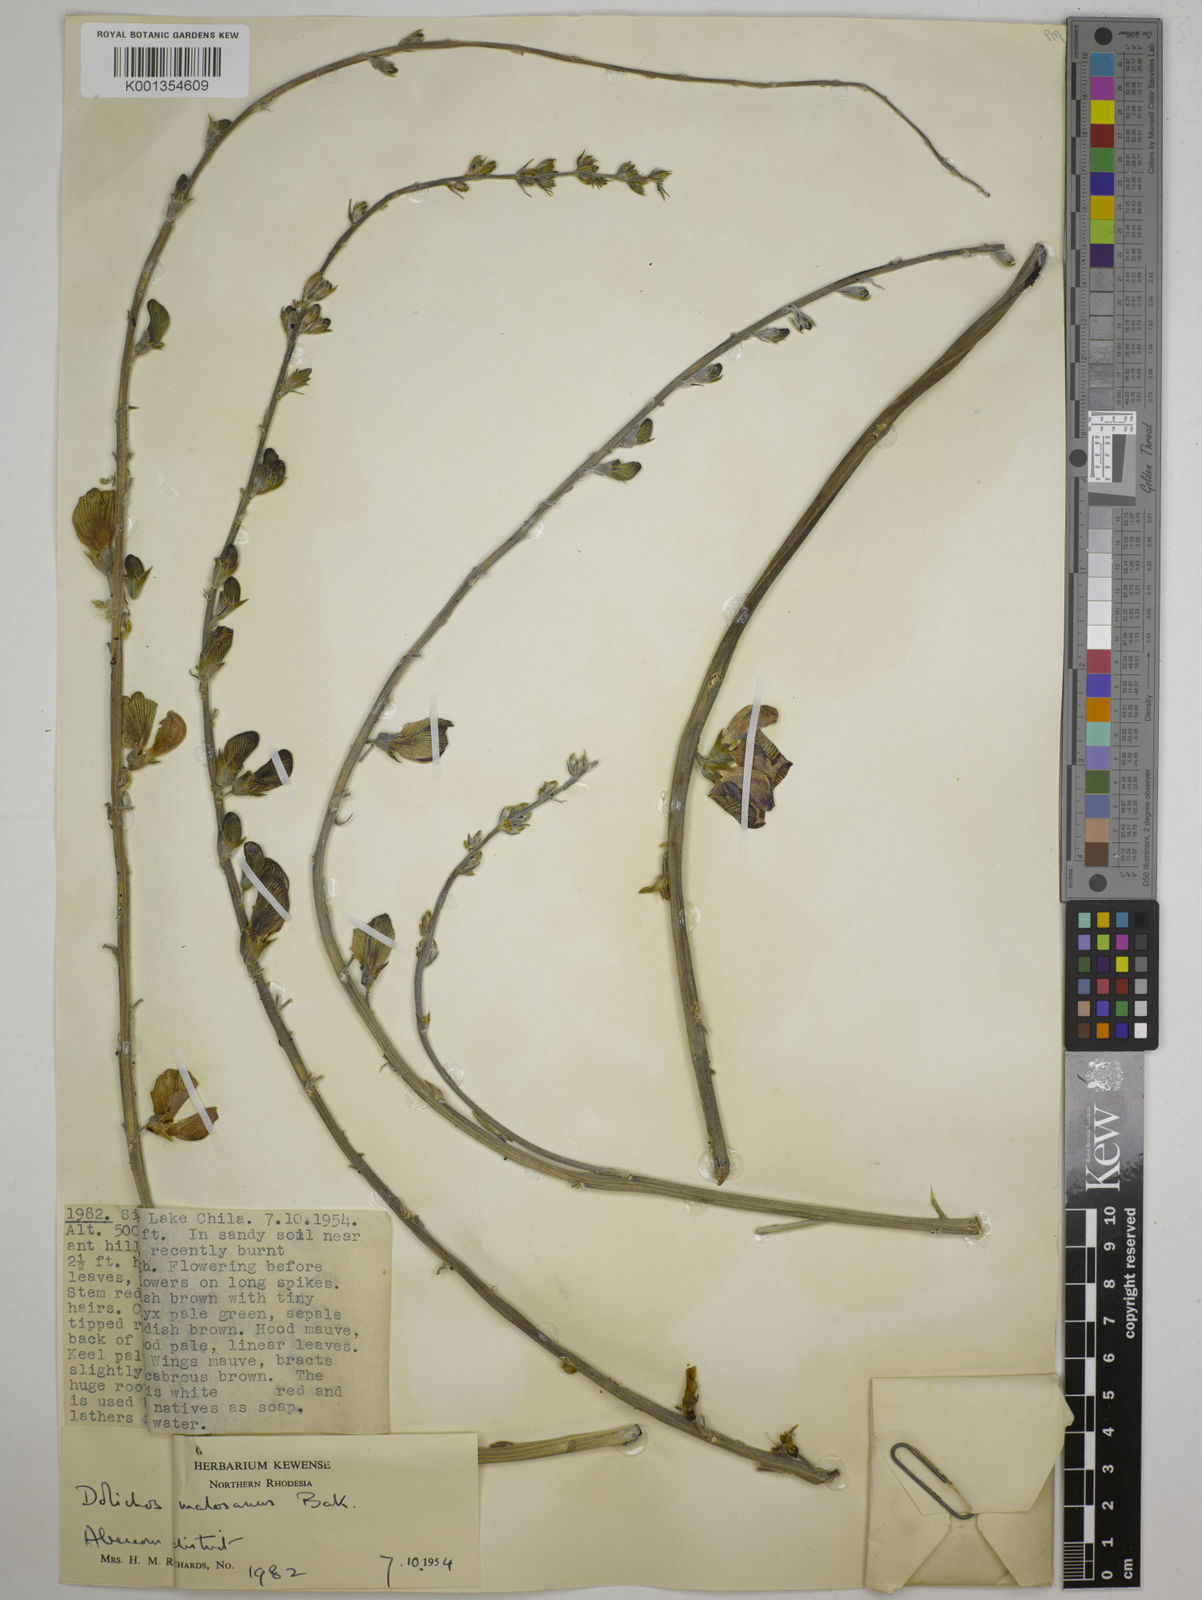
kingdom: Plantae
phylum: Tracheophyta
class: Magnoliopsida
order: Fabales
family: Fabaceae
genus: Dolichos
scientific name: Dolichos kilimandscharicus
